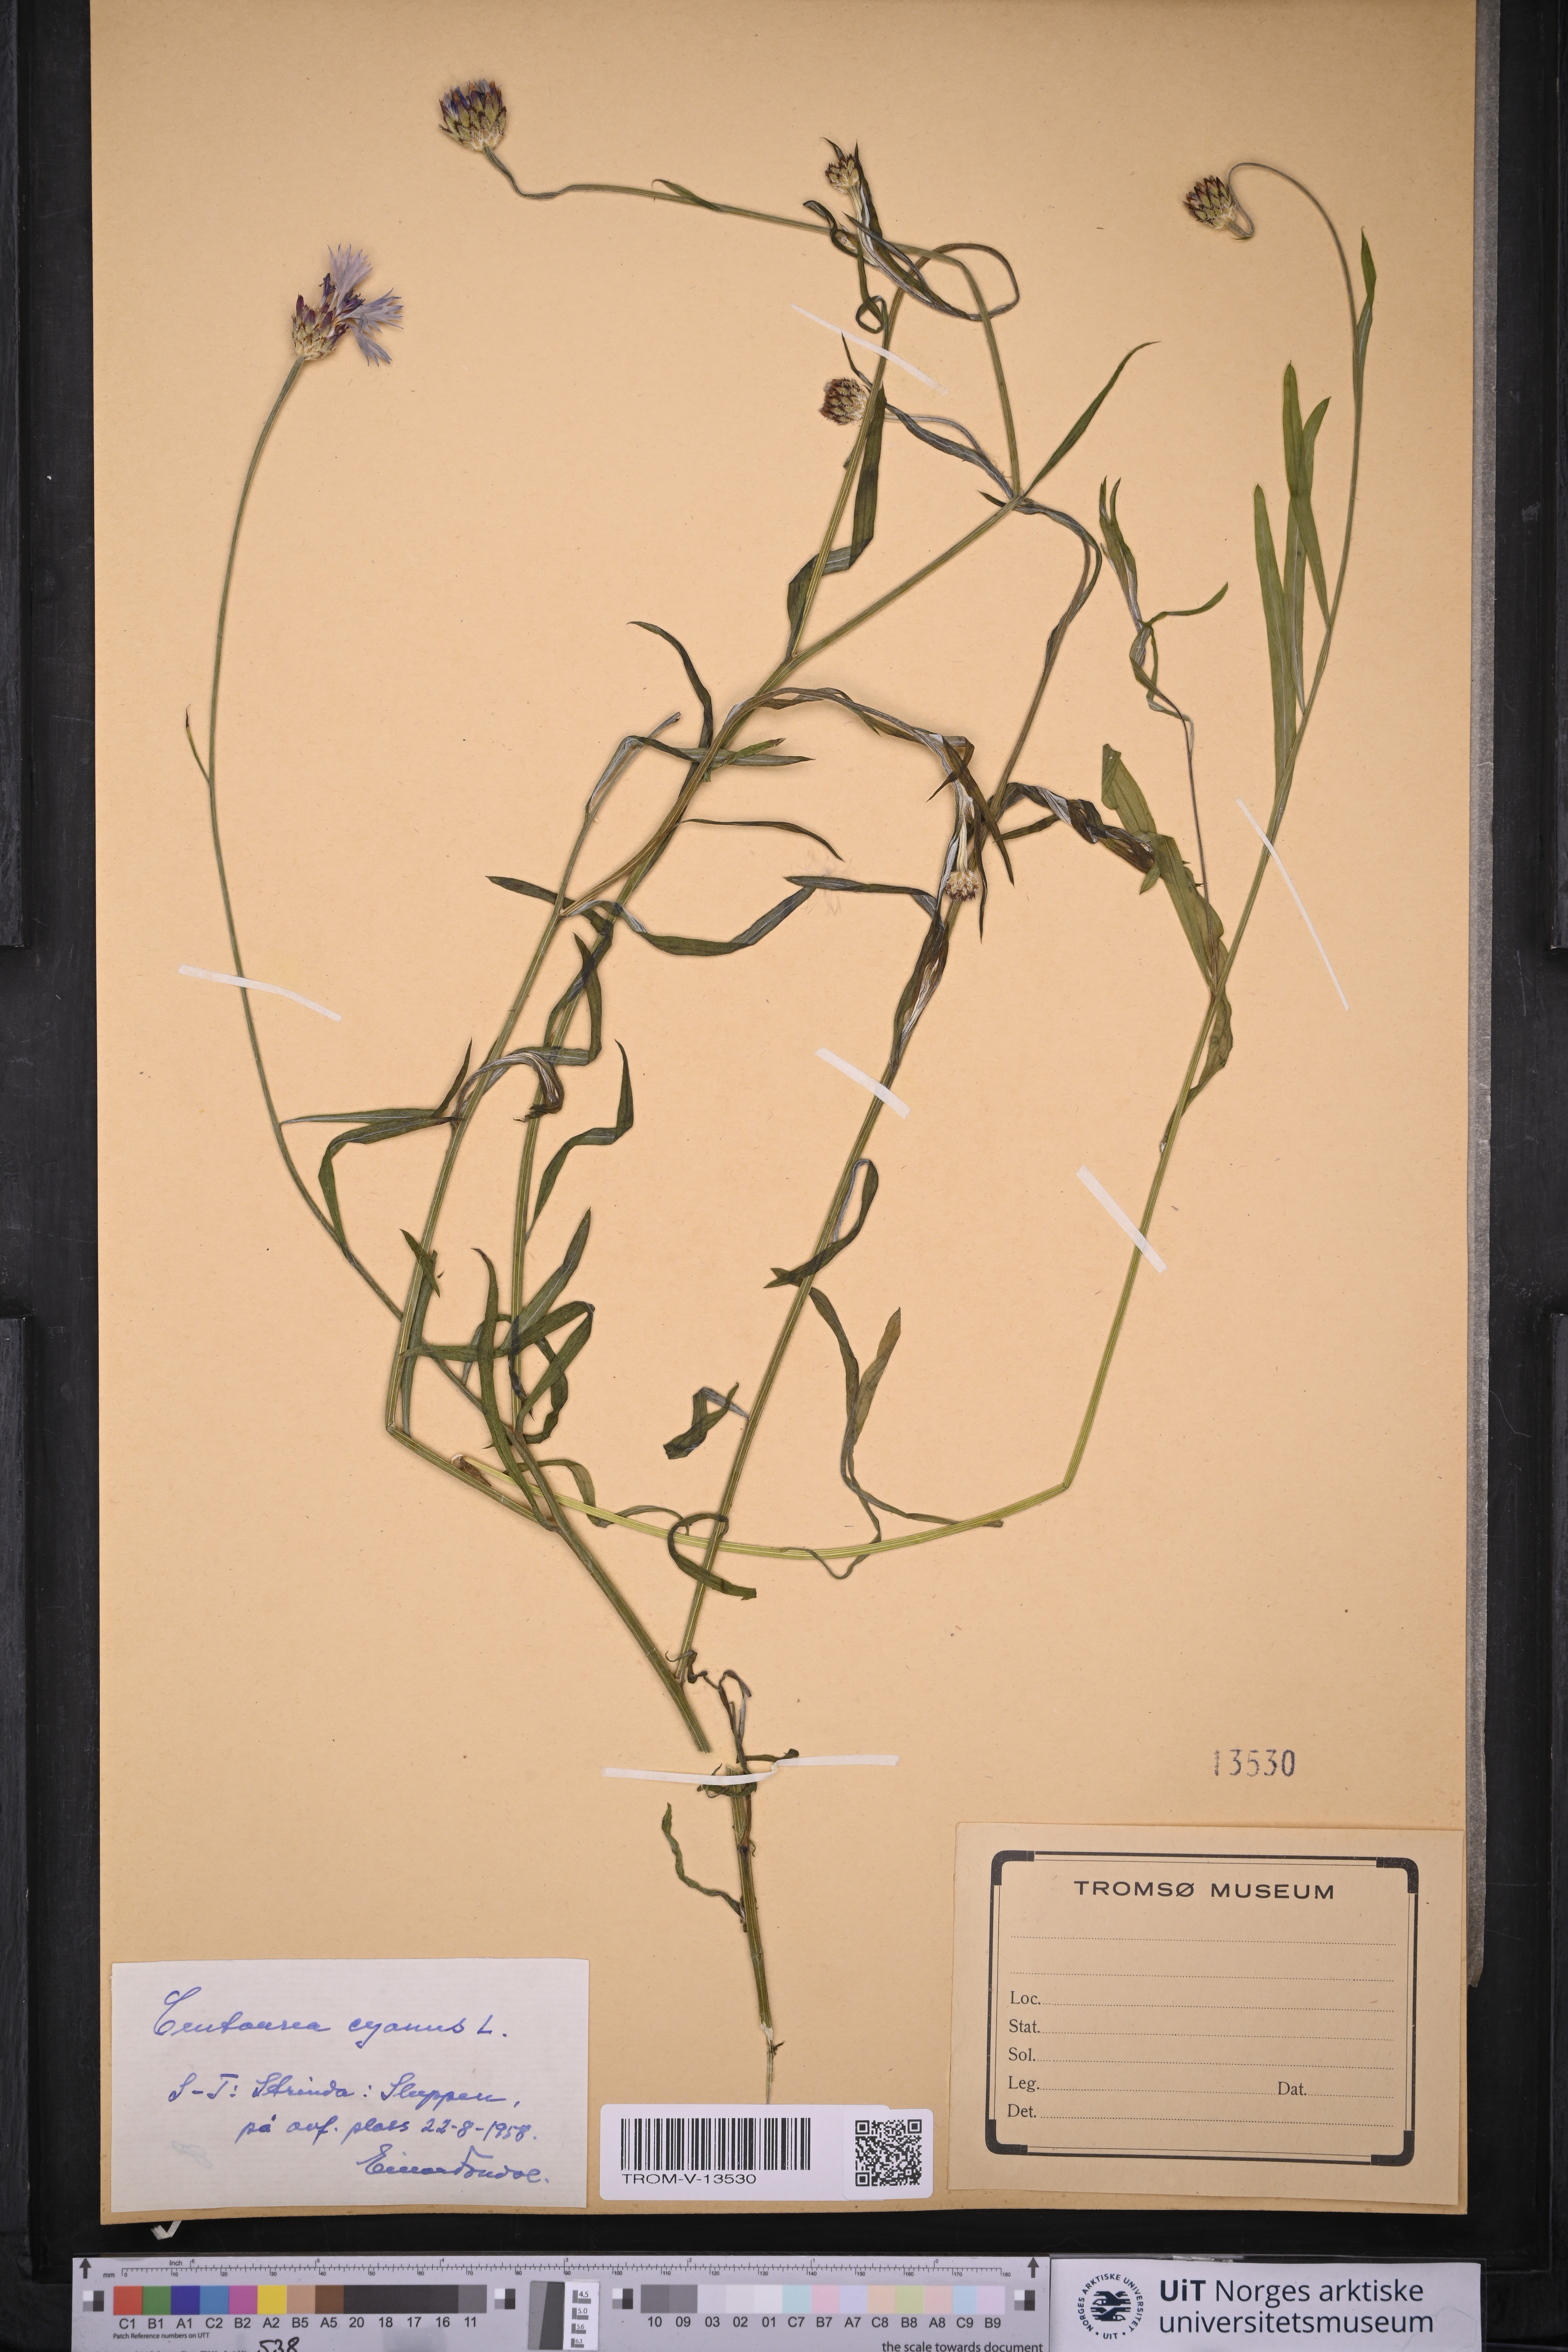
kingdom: Plantae
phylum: Tracheophyta
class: Magnoliopsida
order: Asterales
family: Asteraceae
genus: Centaurea
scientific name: Centaurea cyanus
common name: Cornflower
